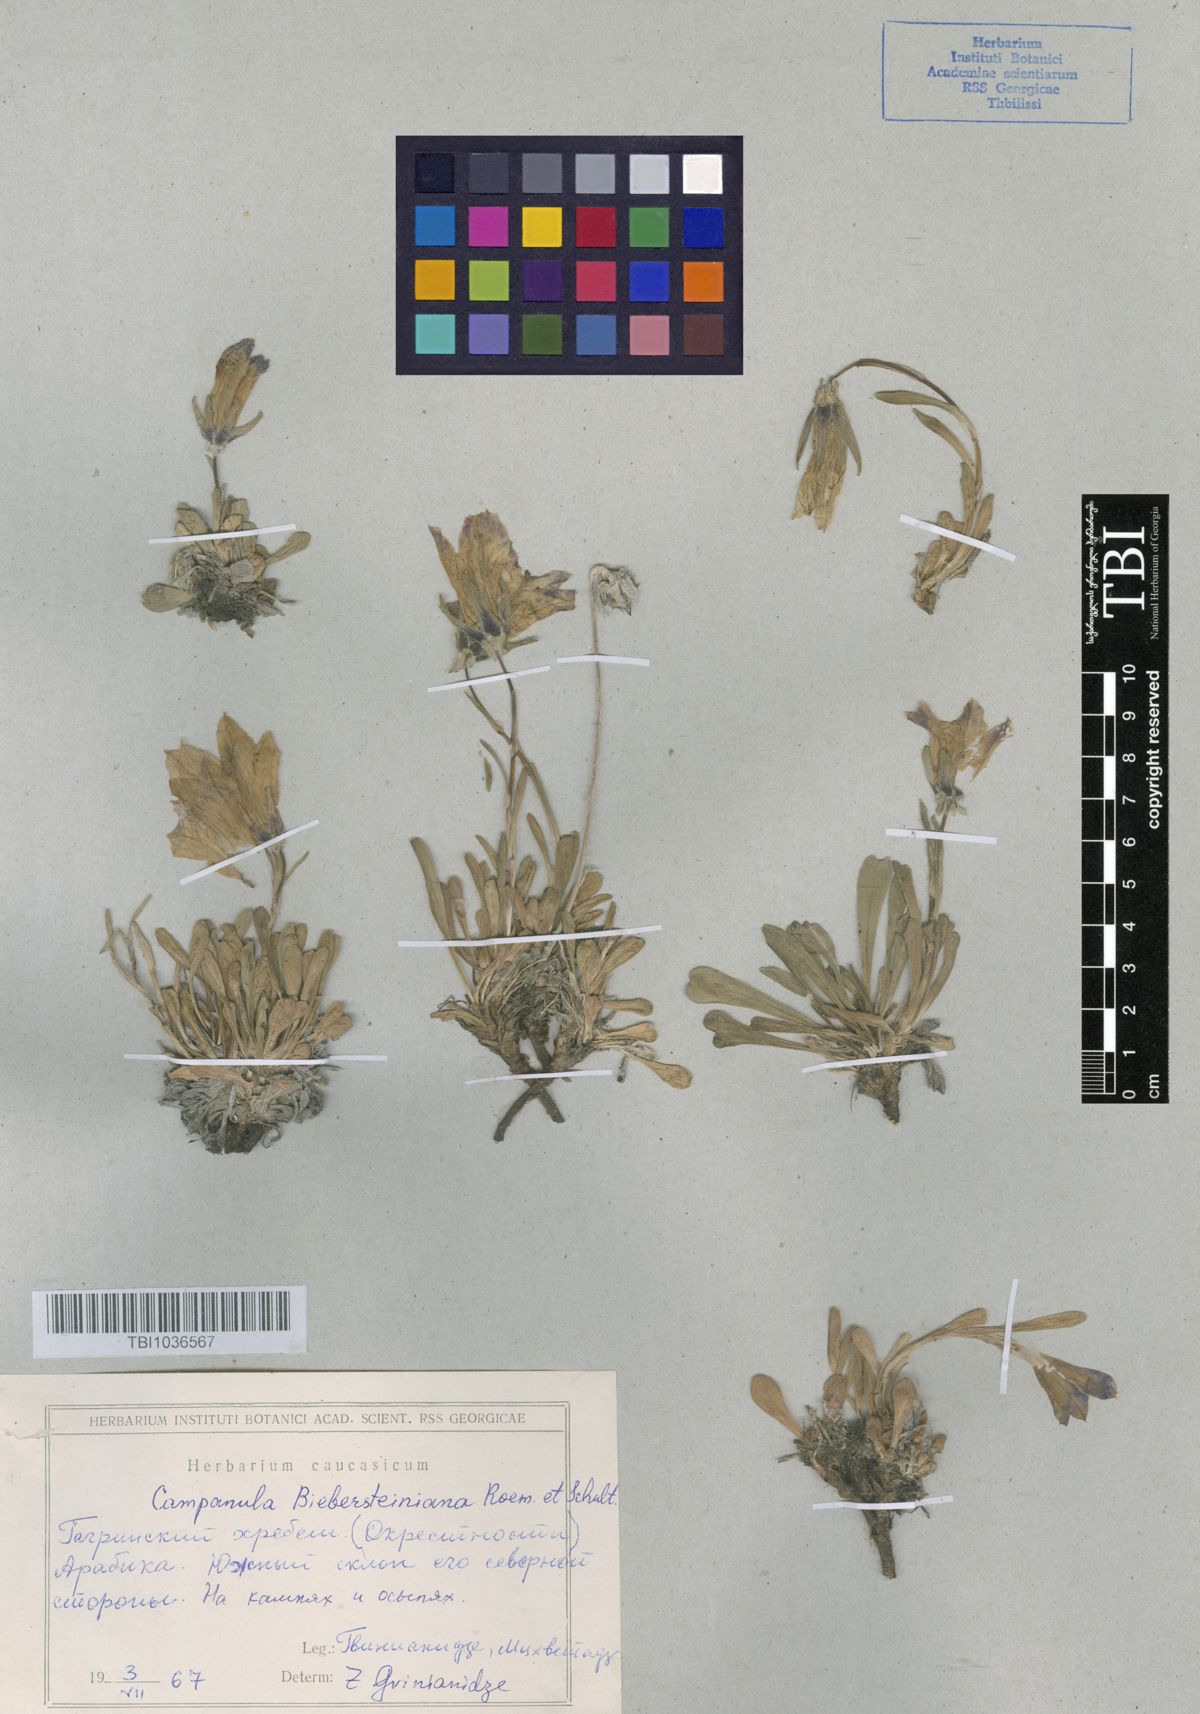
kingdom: Plantae
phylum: Tracheophyta
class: Magnoliopsida
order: Asterales
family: Campanulaceae
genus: Campanula
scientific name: Campanula tridentata
